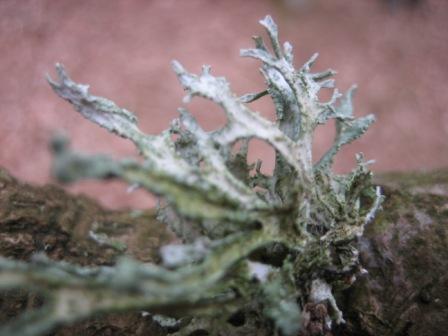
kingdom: Fungi
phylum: Ascomycota
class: Lecanoromycetes
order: Lecanorales
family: Parmeliaceae
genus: Evernia
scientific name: Evernia prunastri
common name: almindelig slåenlav
